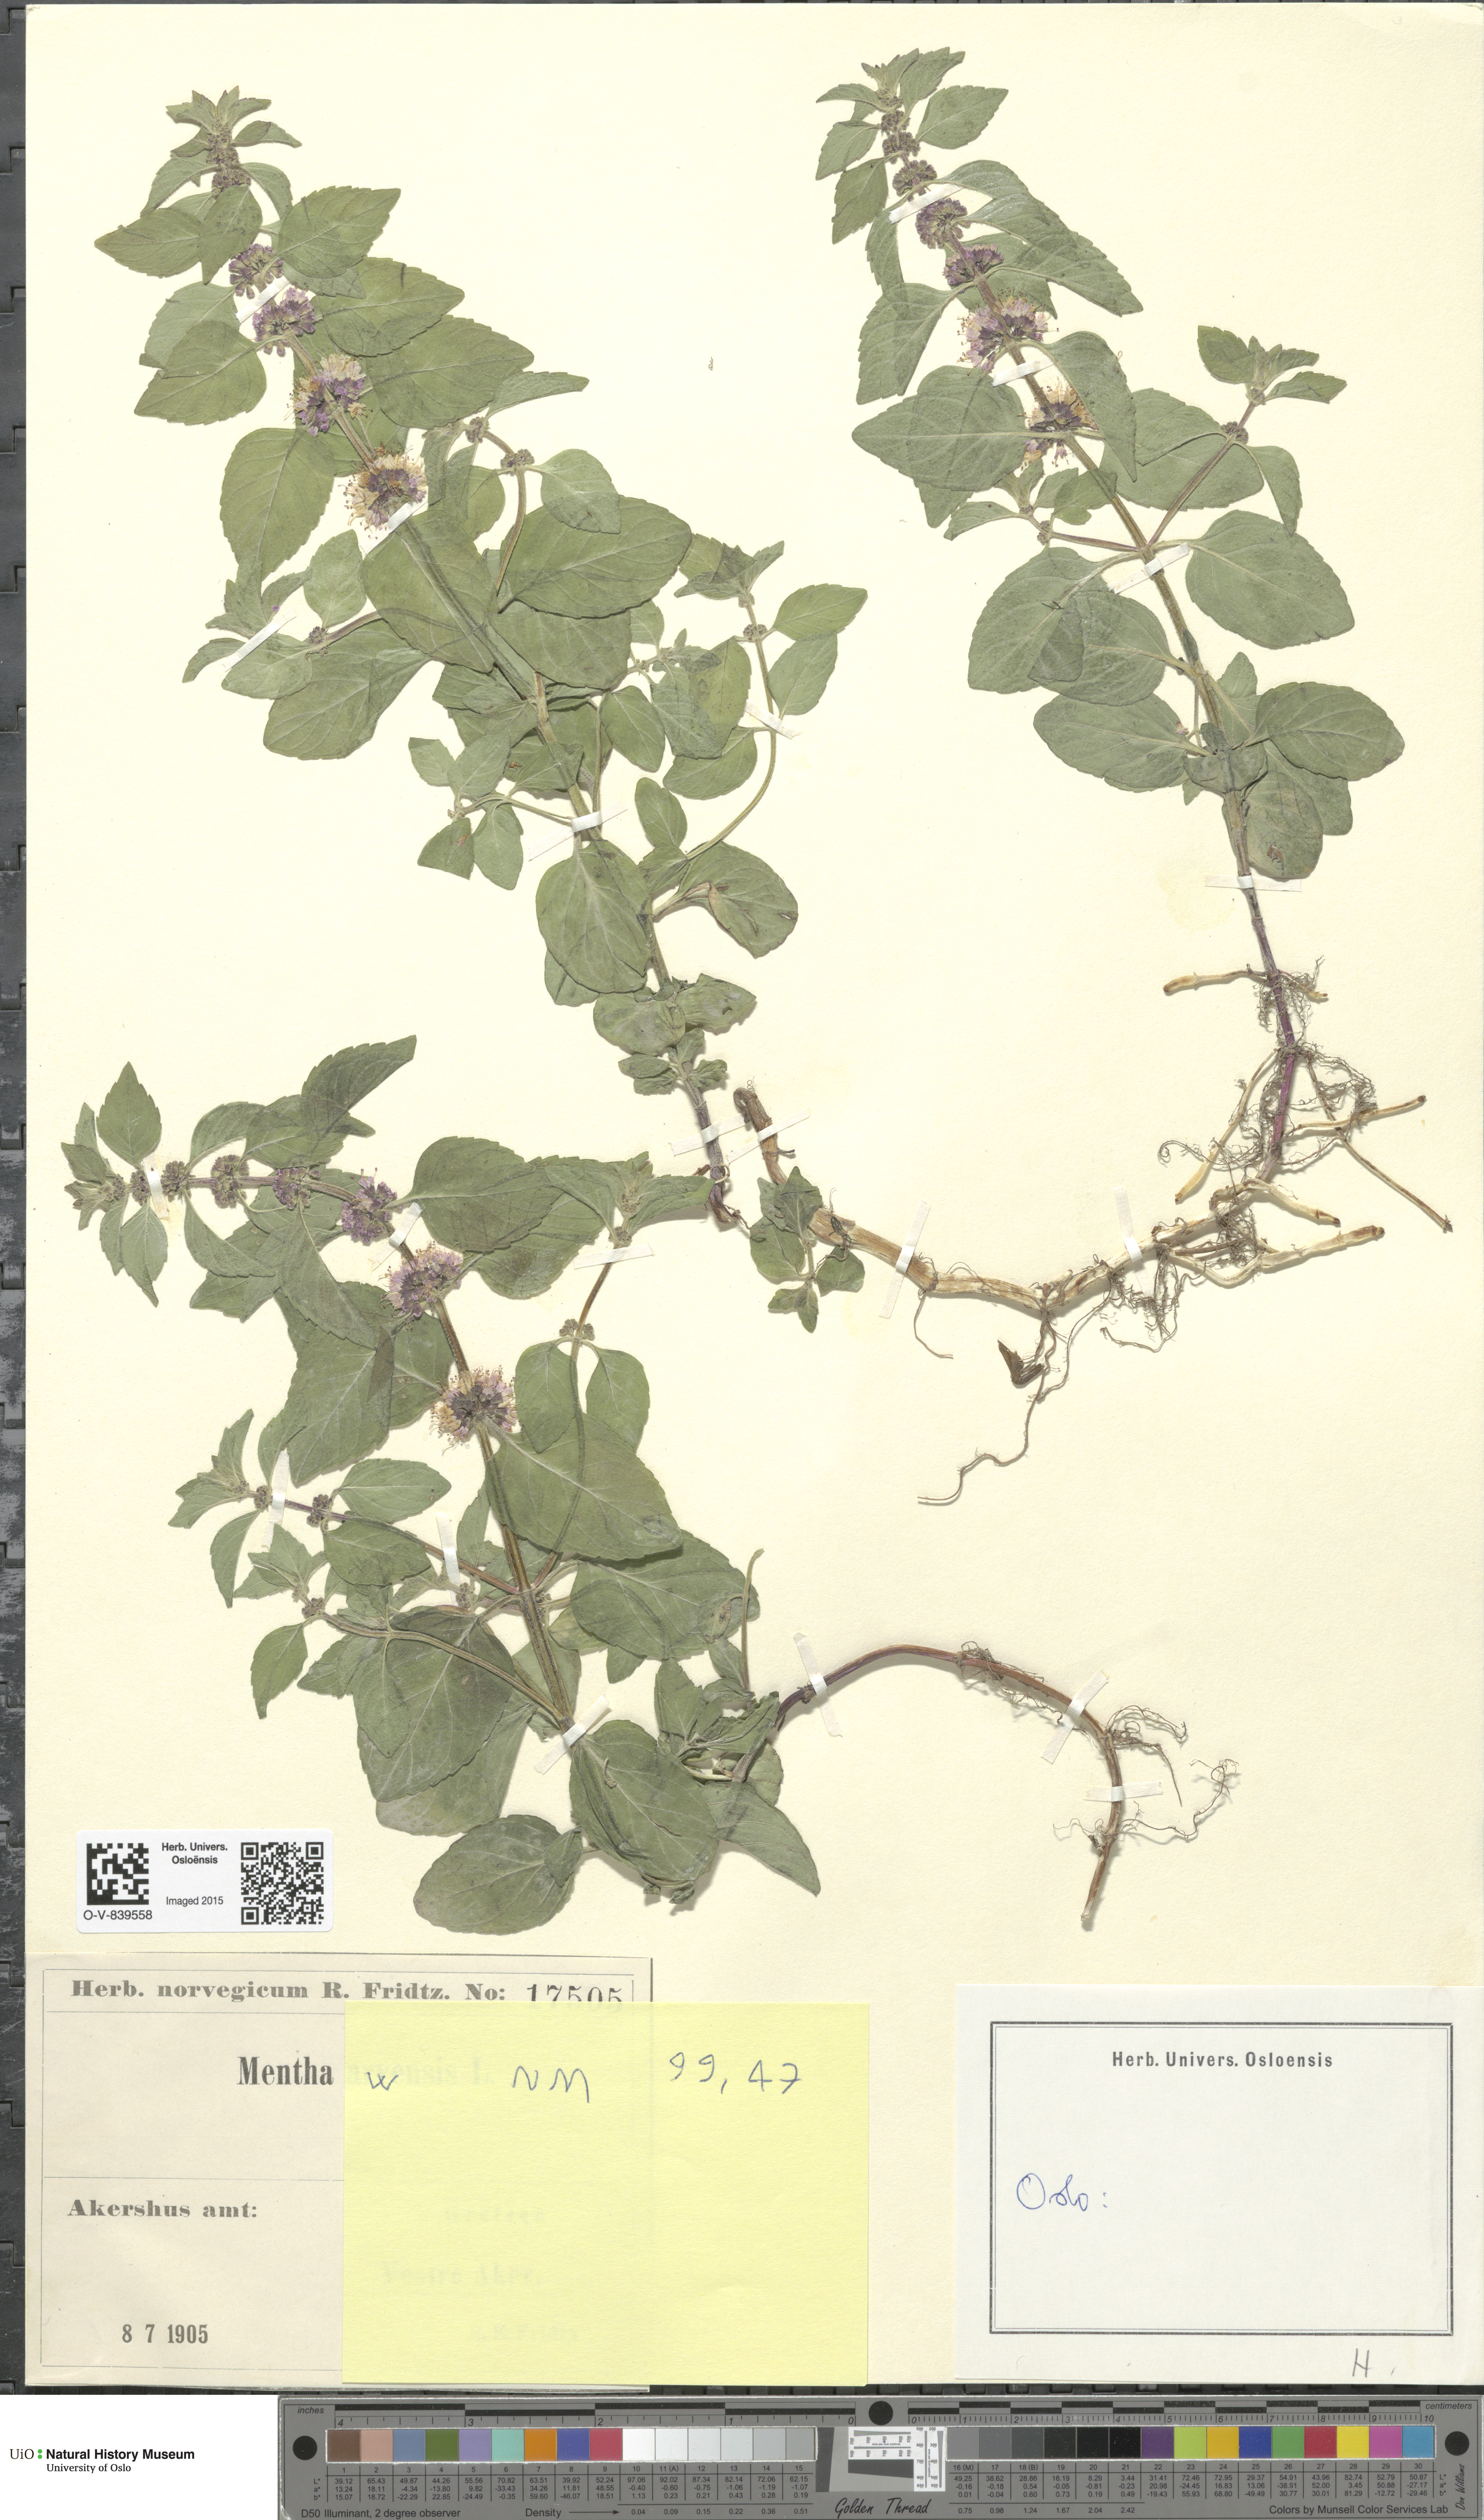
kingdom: Plantae
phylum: Tracheophyta
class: Magnoliopsida
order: Lamiales
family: Lamiaceae
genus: Mentha
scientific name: Mentha arvensis
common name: Corn mint
